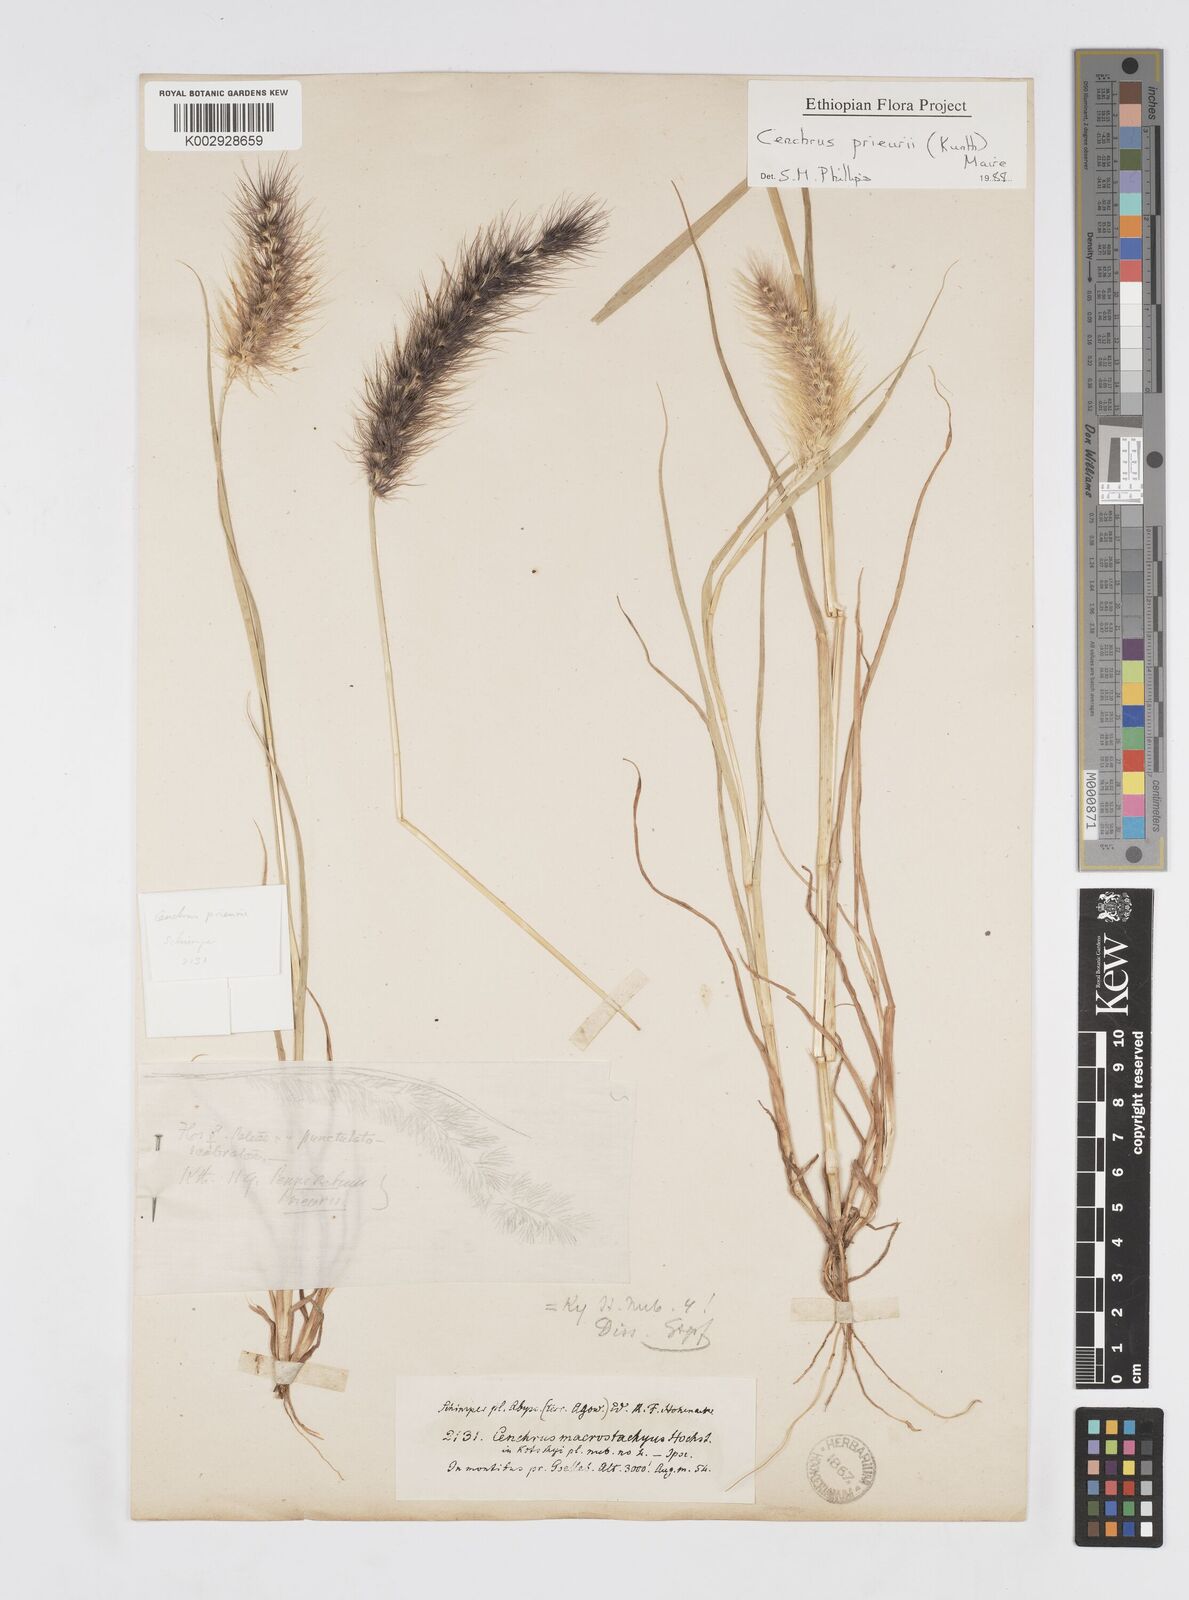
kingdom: Plantae
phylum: Tracheophyta
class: Liliopsida
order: Poales
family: Poaceae
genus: Cenchrus
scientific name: Cenchrus prieurii
